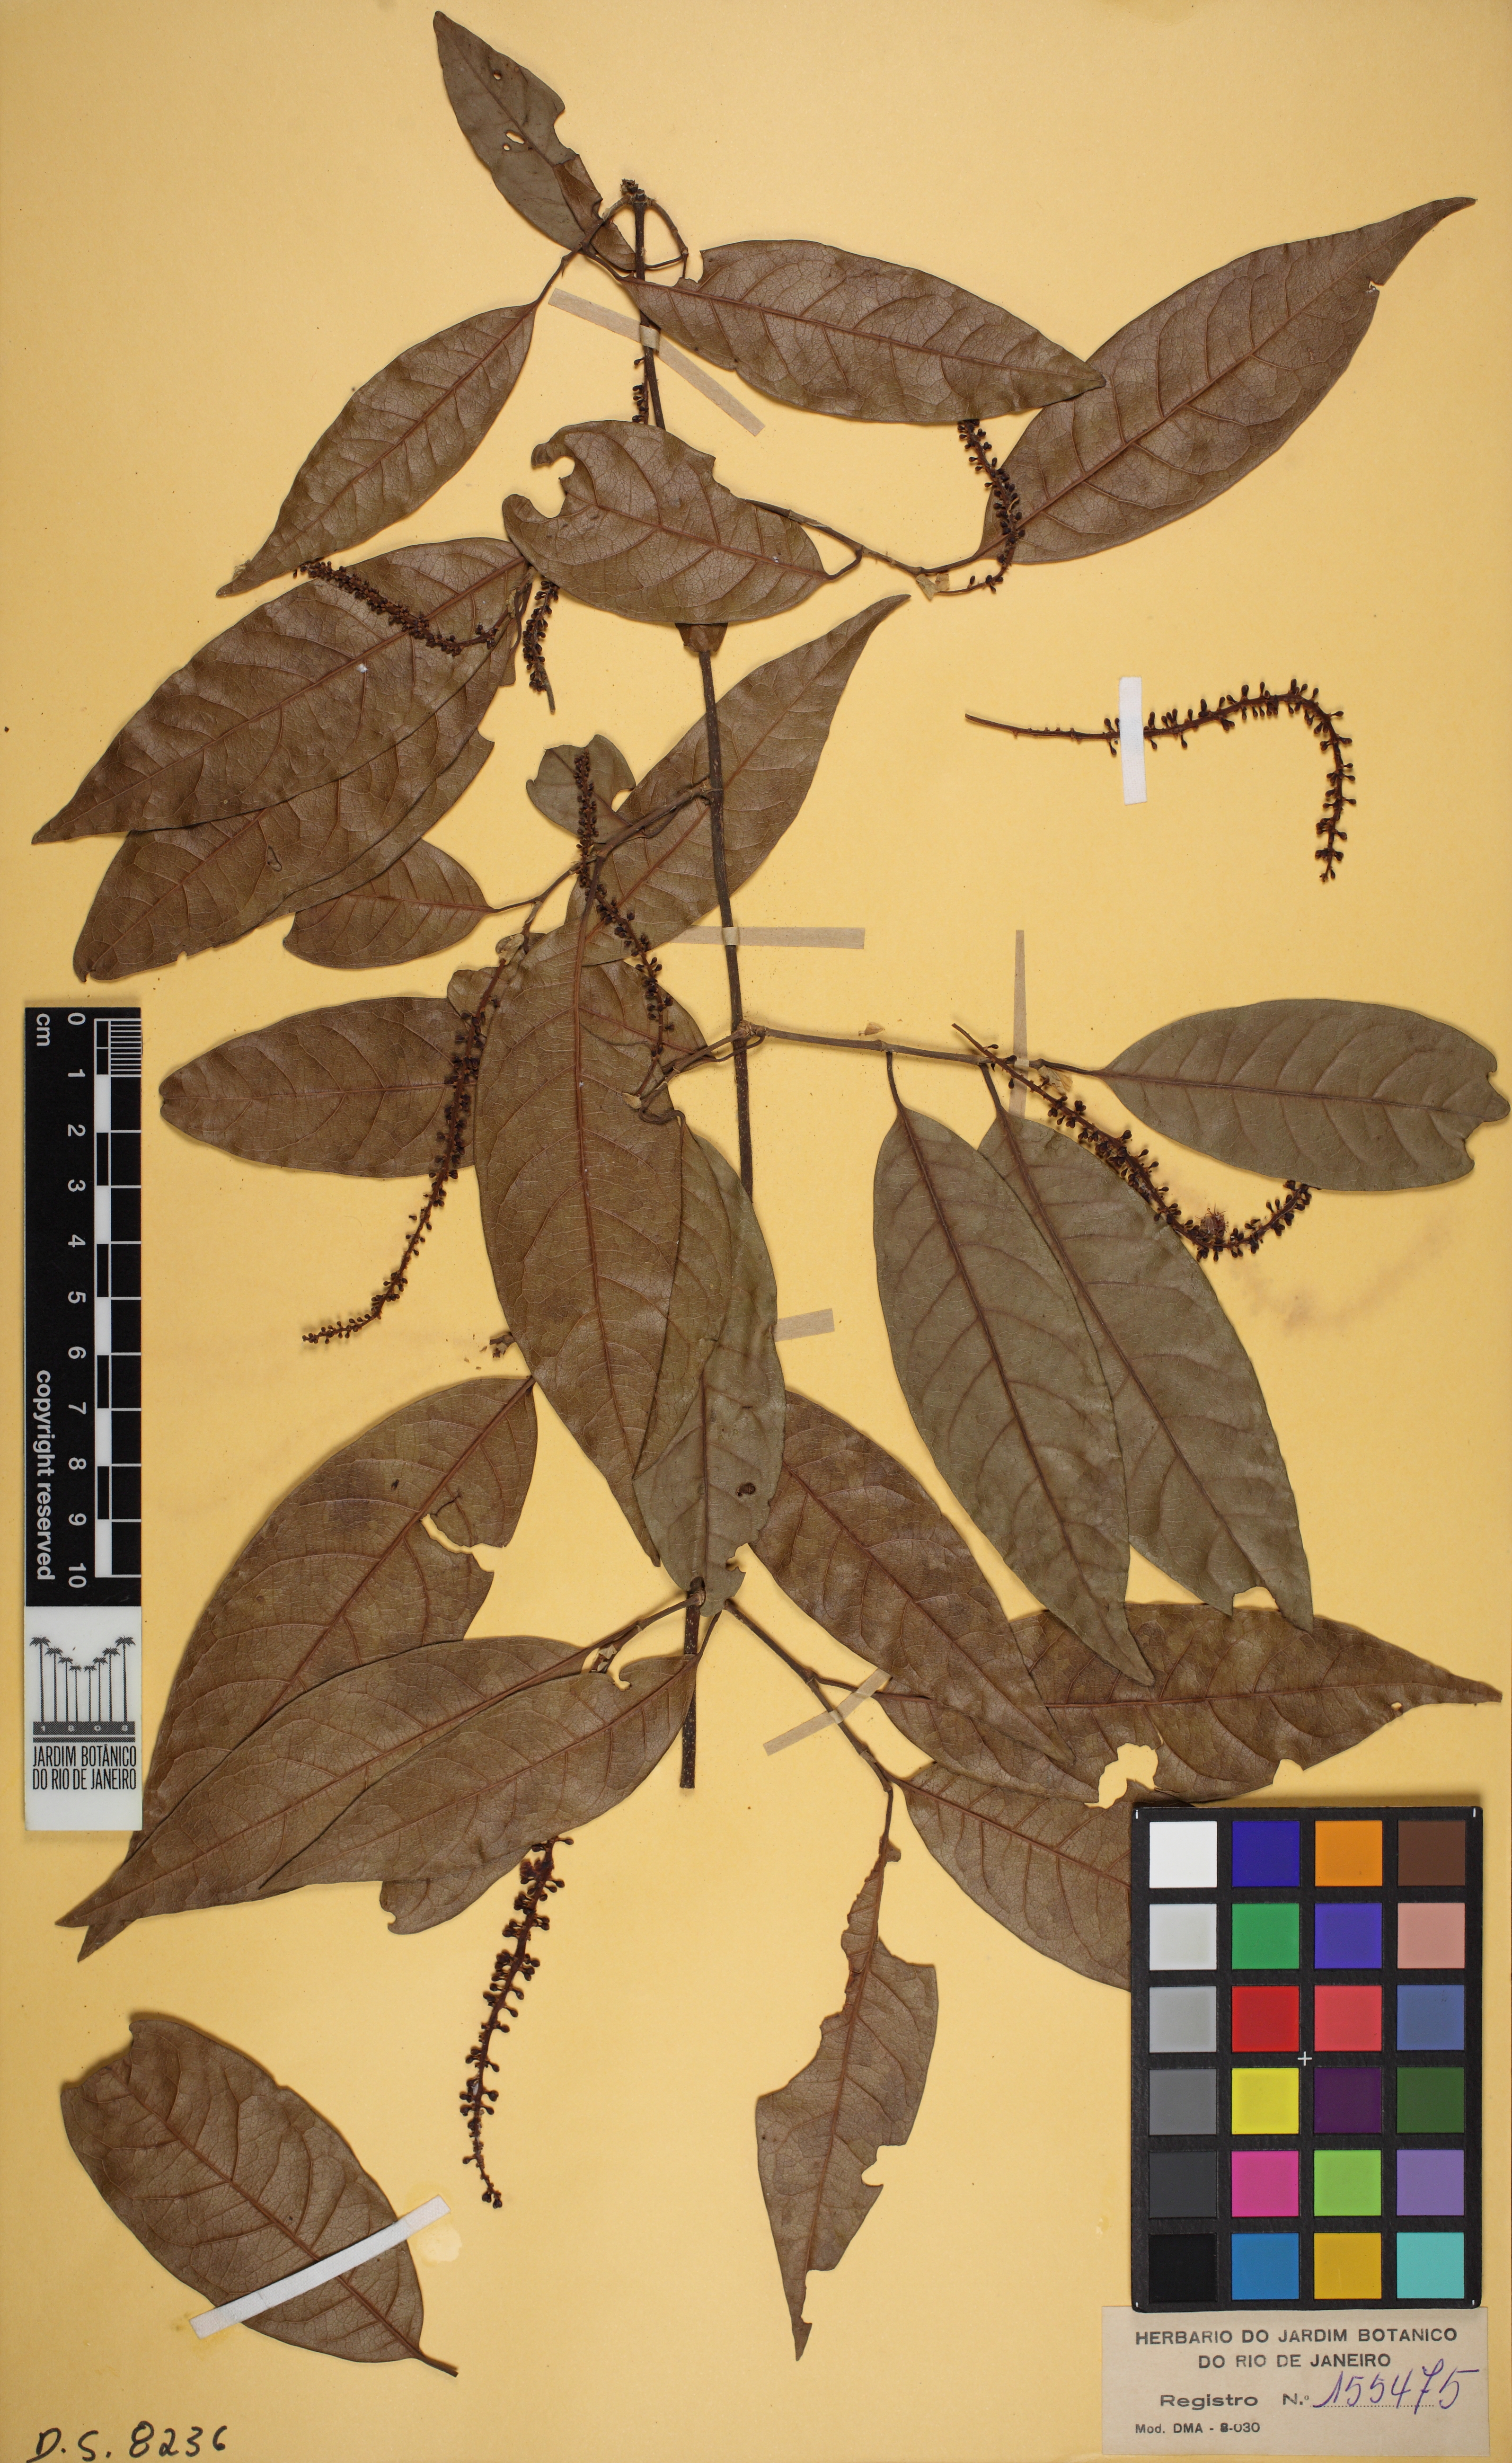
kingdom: Plantae
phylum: Tracheophyta
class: Magnoliopsida
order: Caryophyllales
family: Polygonaceae
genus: Coccoloba
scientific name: Coccoloba scandens
